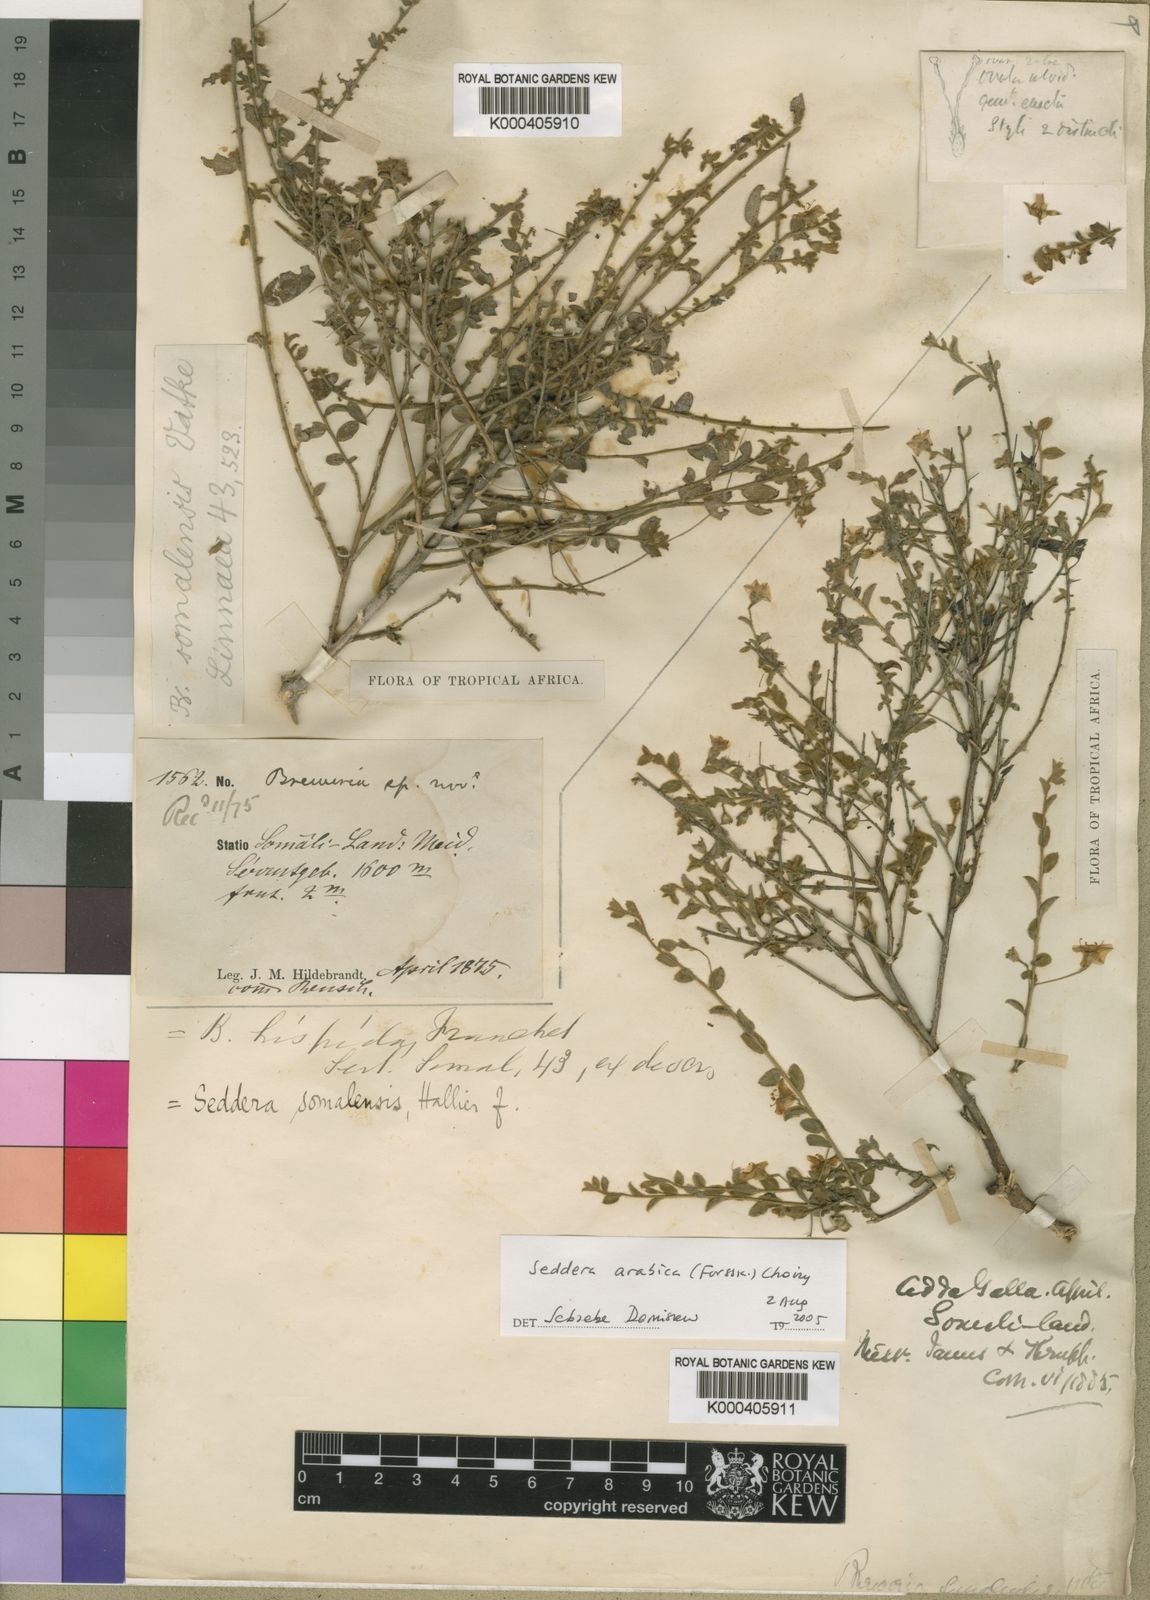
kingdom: Plantae
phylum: Tracheophyta
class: Magnoliopsida
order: Solanales
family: Convolvulaceae
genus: Seddera
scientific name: Seddera arabica
